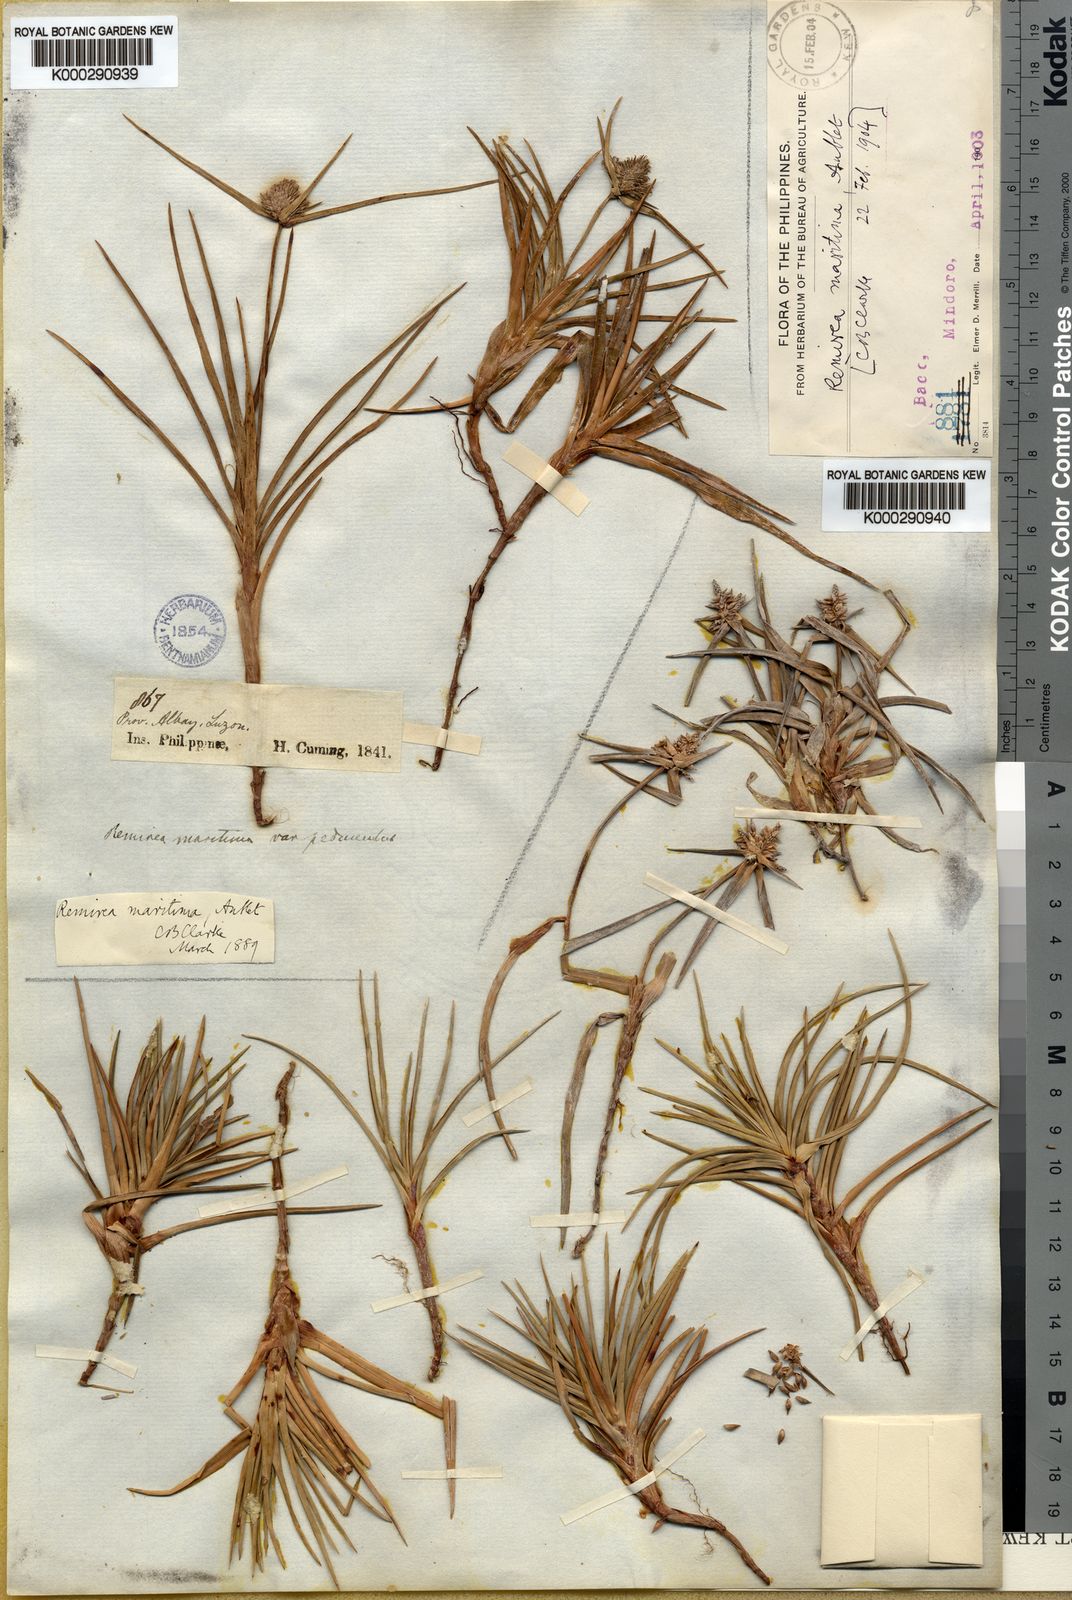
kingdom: Plantae
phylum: Tracheophyta
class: Liliopsida
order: Poales
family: Cyperaceae
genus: Cyperus
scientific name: Cyperus pedunculatus
